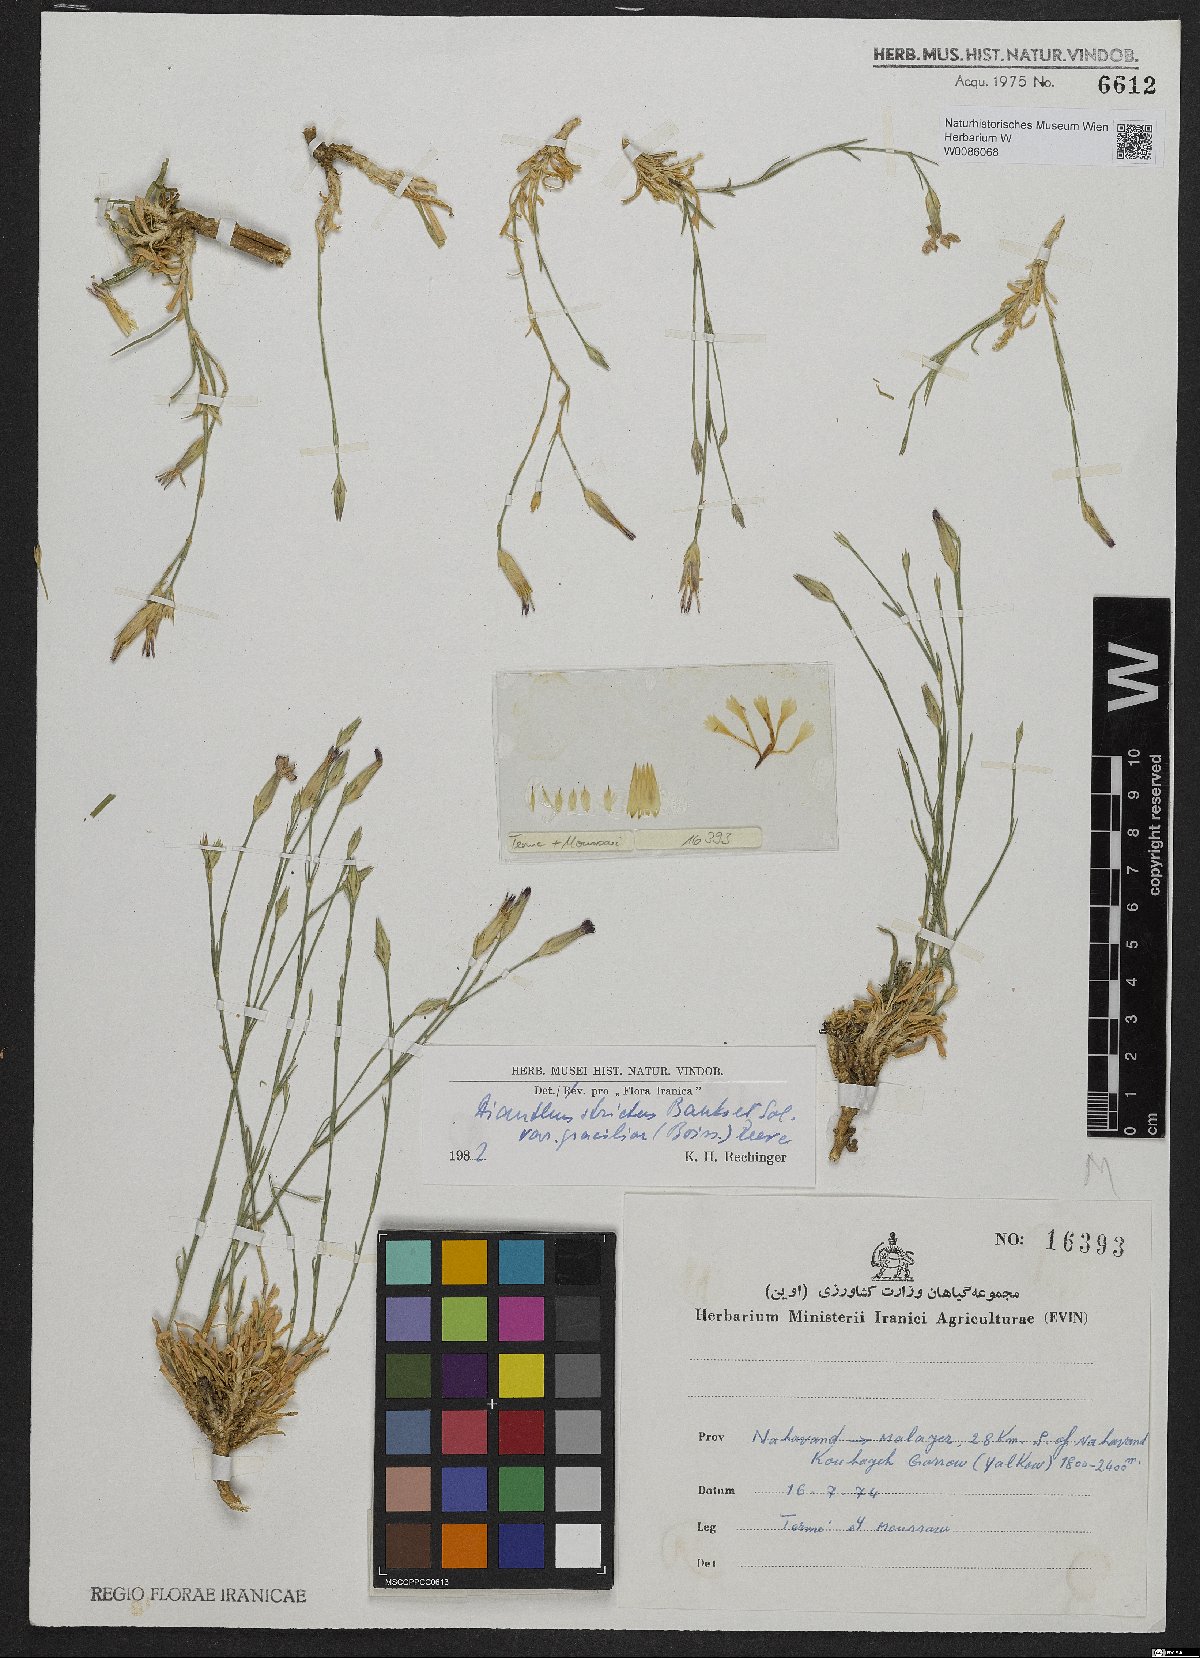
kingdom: Plantae
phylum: Tracheophyta
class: Magnoliopsida
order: Caryophyllales
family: Caryophyllaceae
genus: Dianthus
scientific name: Dianthus strictus
